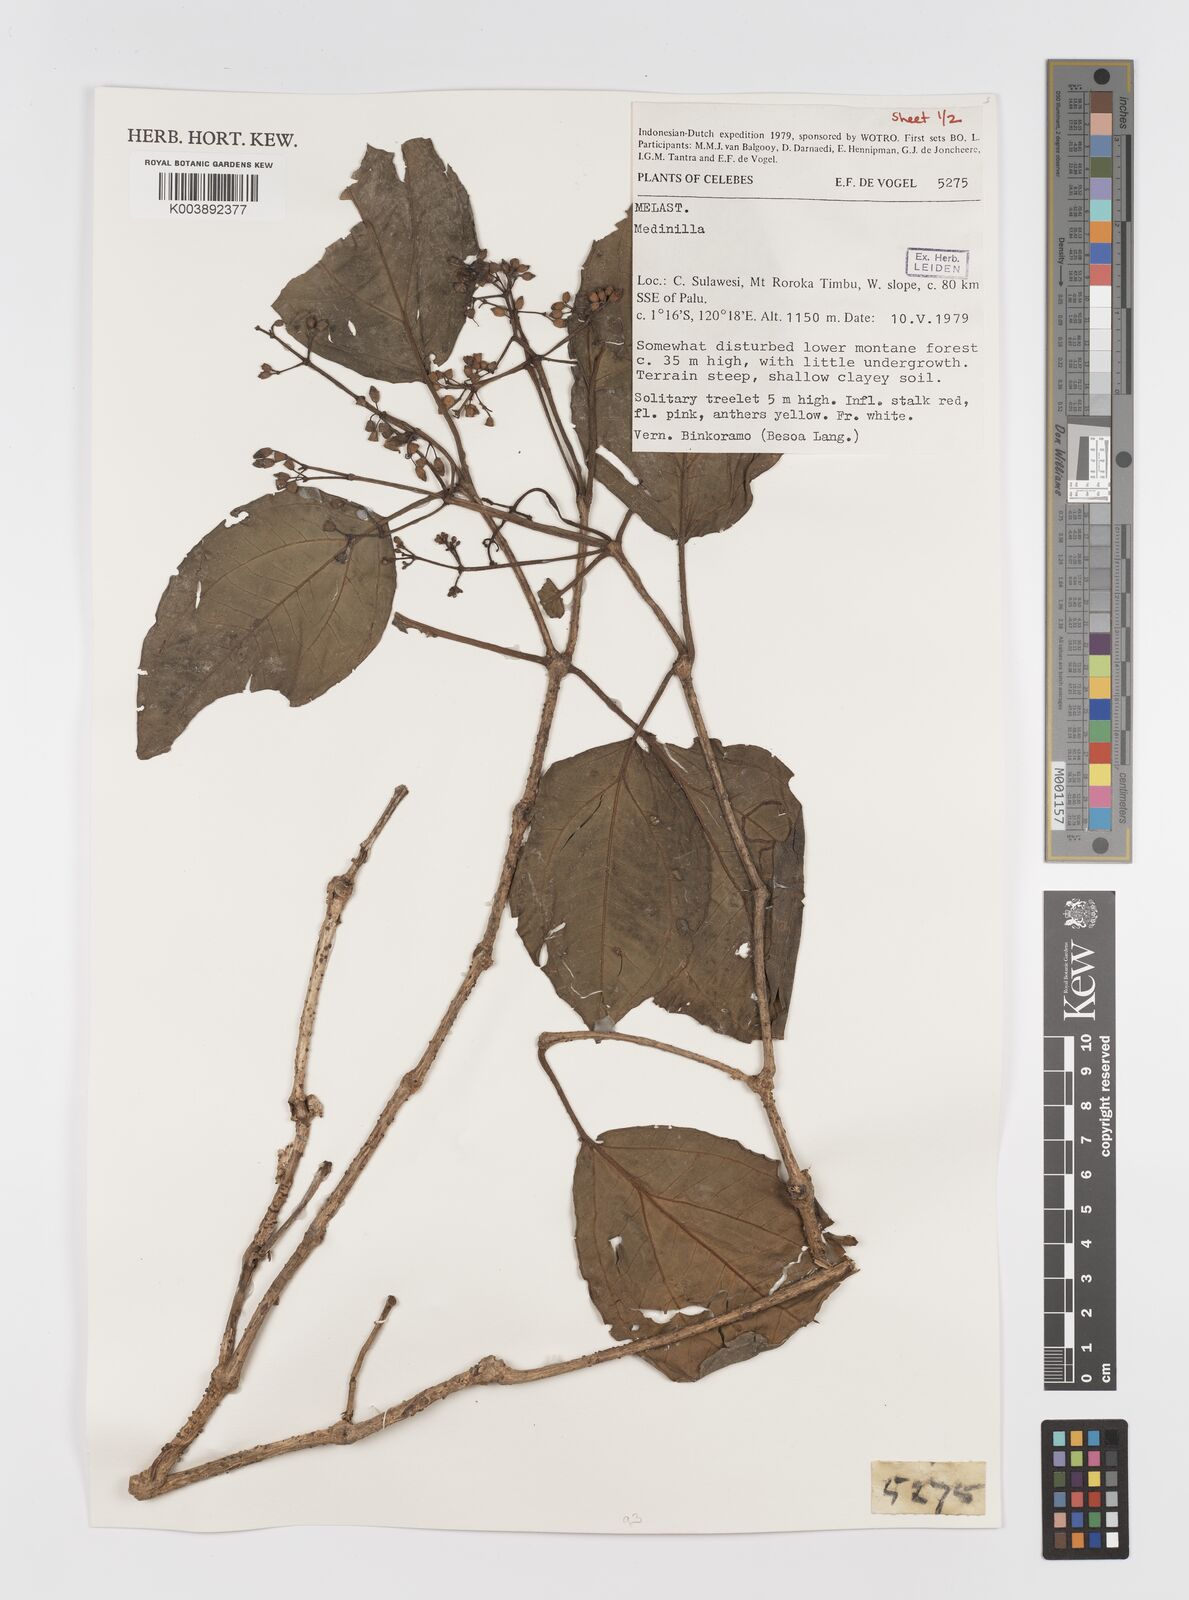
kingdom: Plantae
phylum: Tracheophyta
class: Magnoliopsida
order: Myrtales
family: Melastomataceae
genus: Medinilla
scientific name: Medinilla
